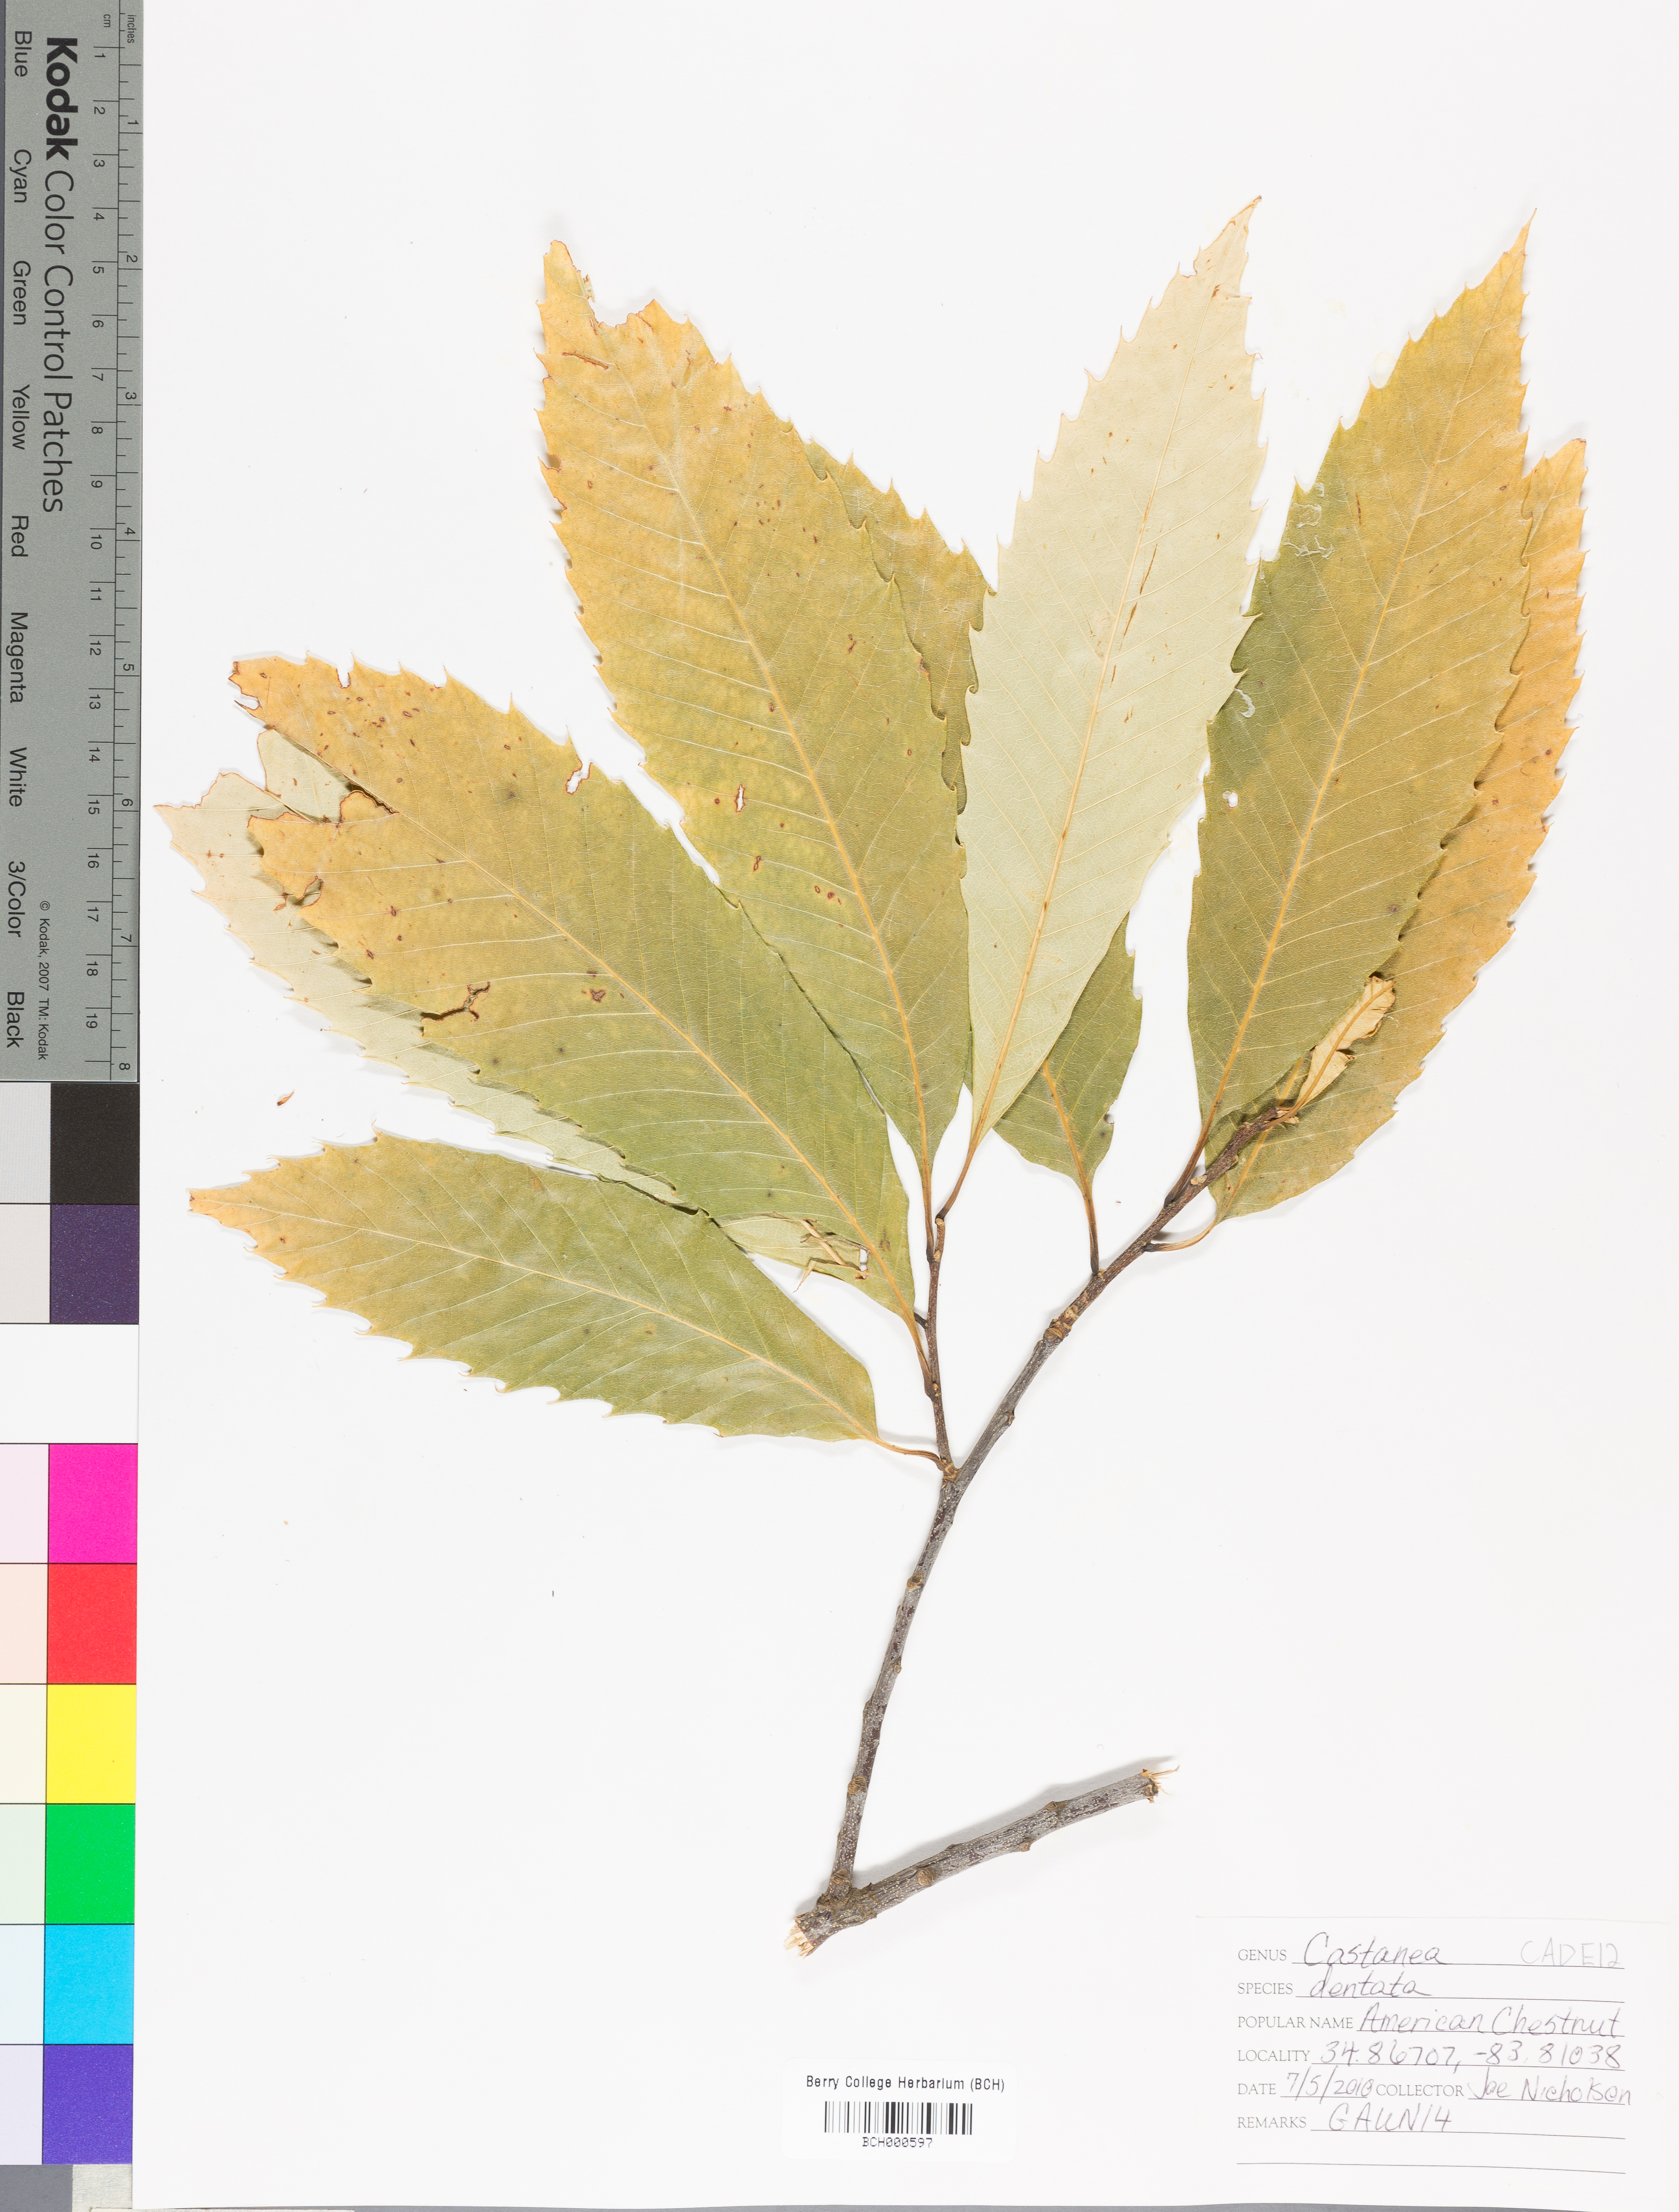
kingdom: Plantae
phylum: Tracheophyta
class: Magnoliopsida
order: Fagales
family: Fagaceae
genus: Castanea
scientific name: Castanea dentata
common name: American chestnut
